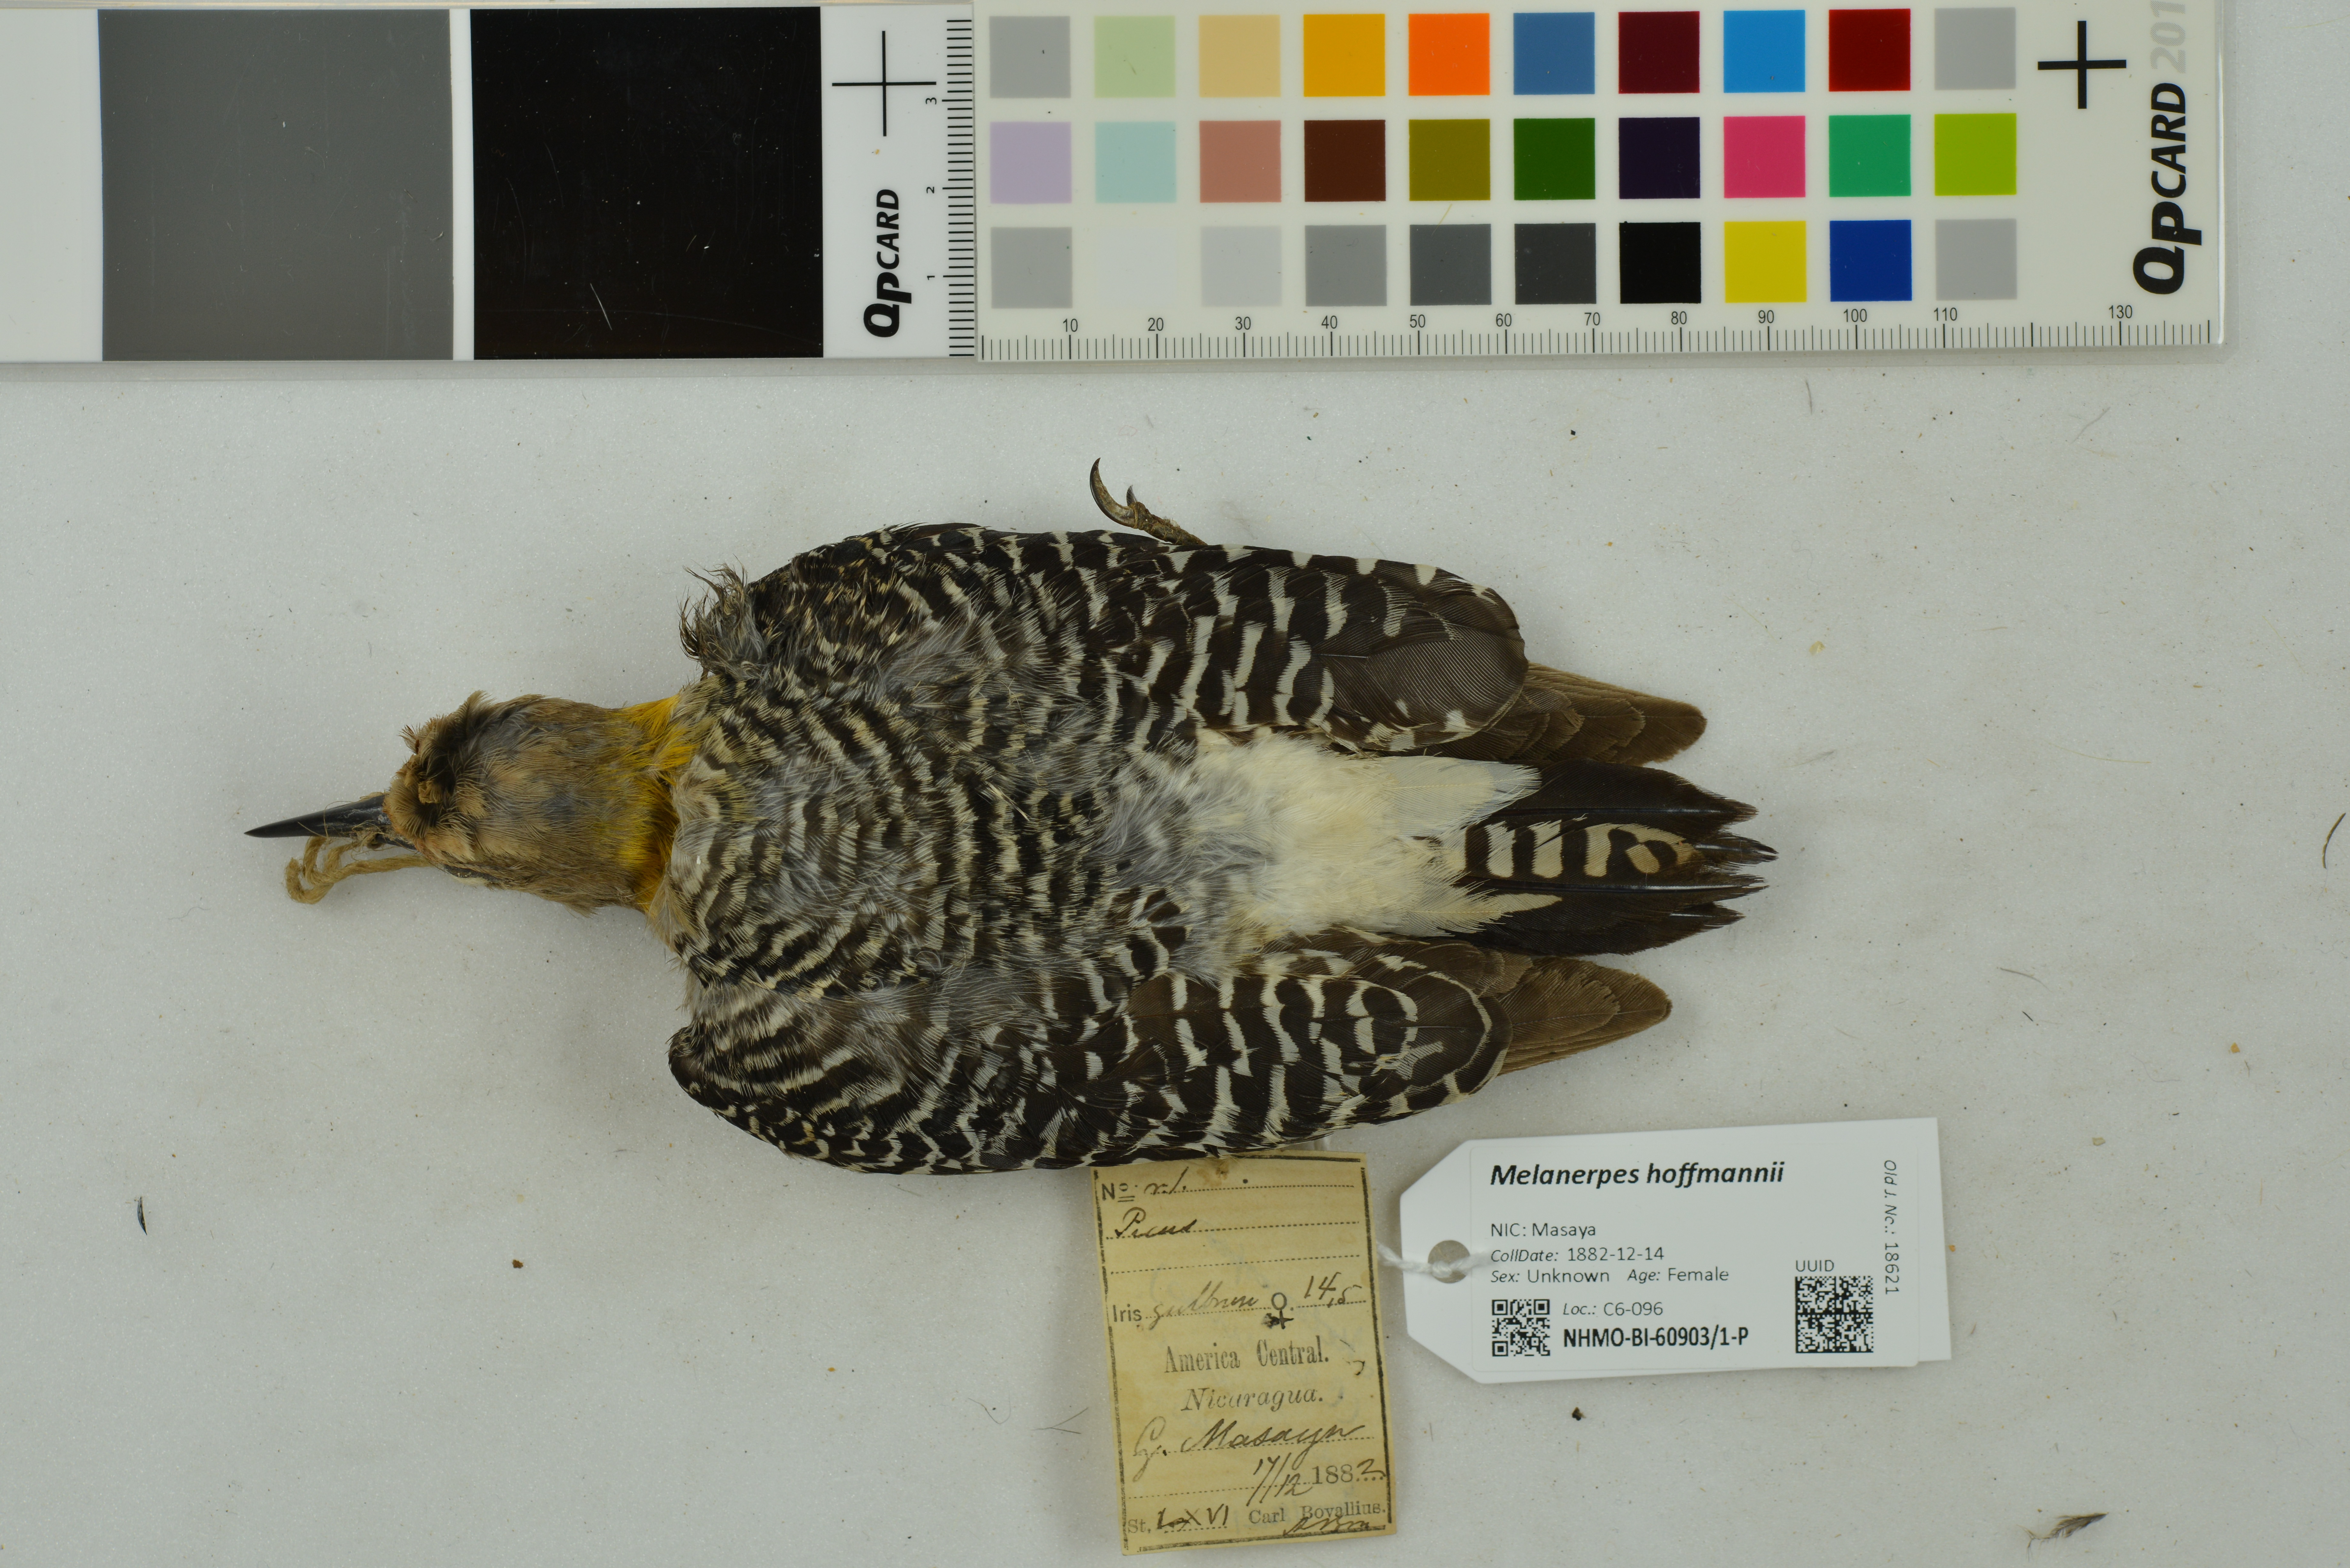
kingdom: Animalia
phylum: Chordata
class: Aves
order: Piciformes
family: Picidae
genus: Melanerpes
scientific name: Melanerpes hoffmannii
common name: Hoffmann's woodpecker
